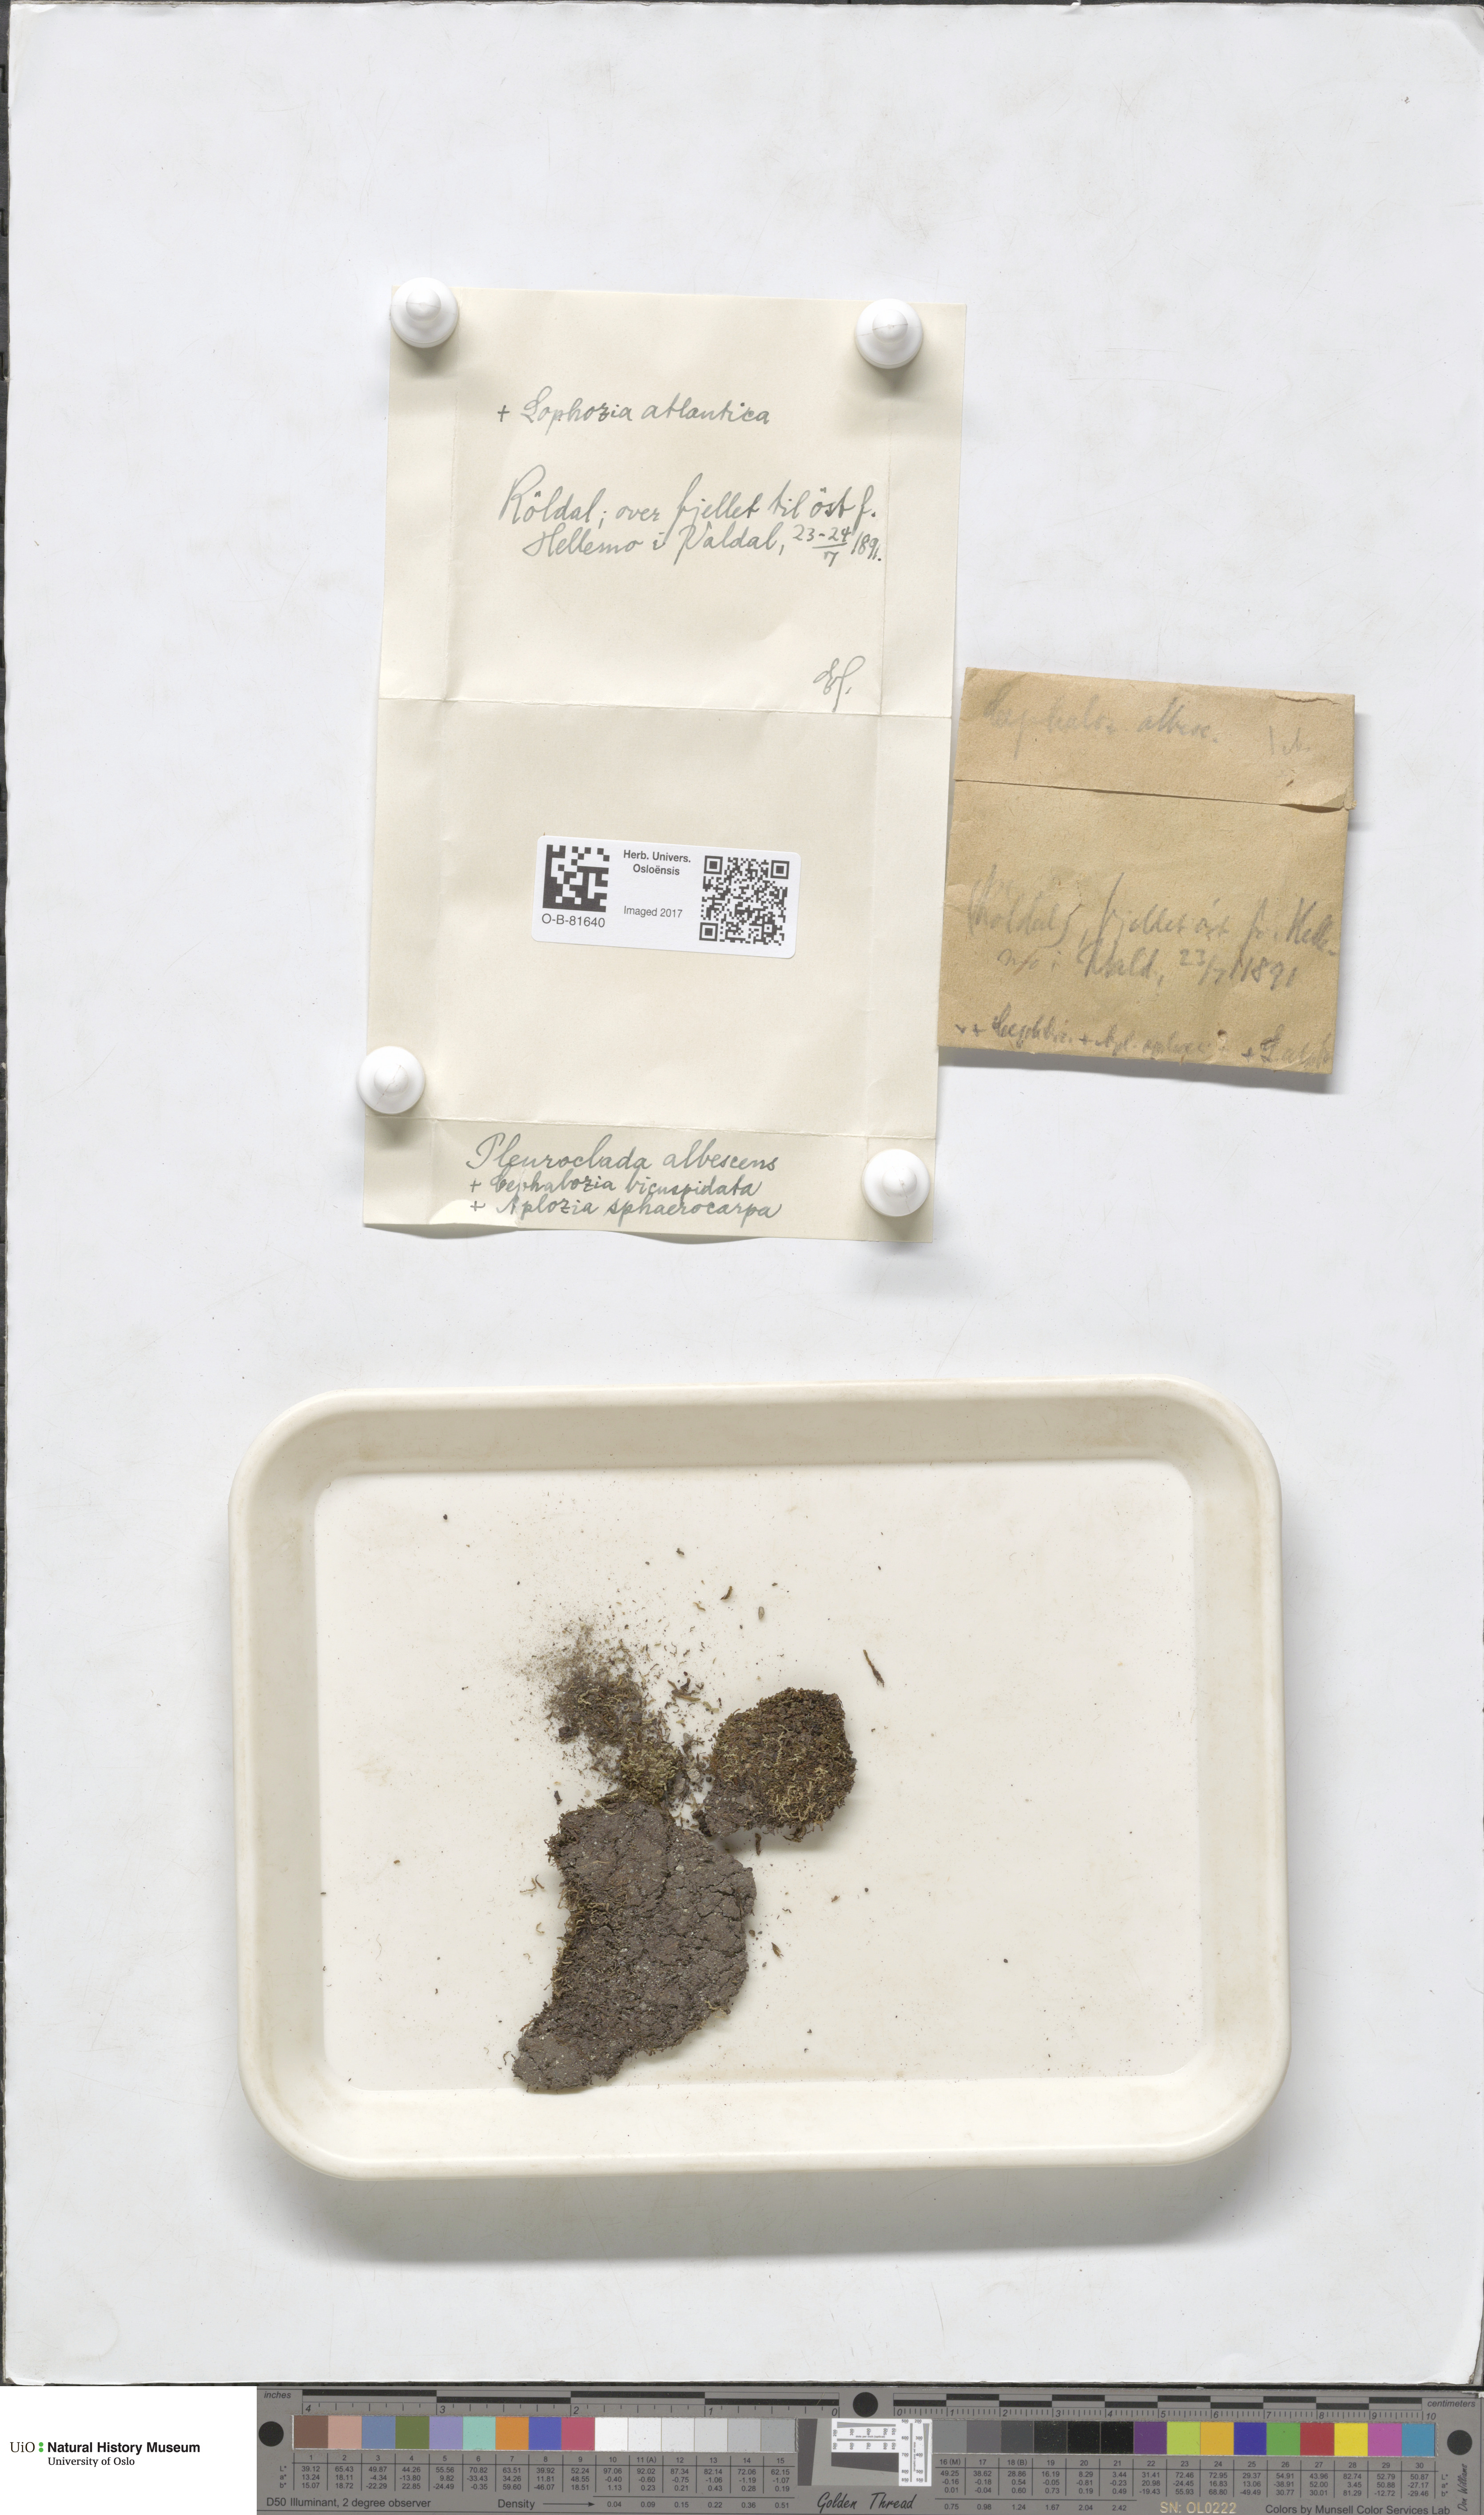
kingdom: Plantae
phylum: Marchantiophyta
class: Jungermanniopsida
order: Jungermanniales
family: Cephaloziaceae
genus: Fuscocephaloziopsis
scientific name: Fuscocephaloziopsis albescens
